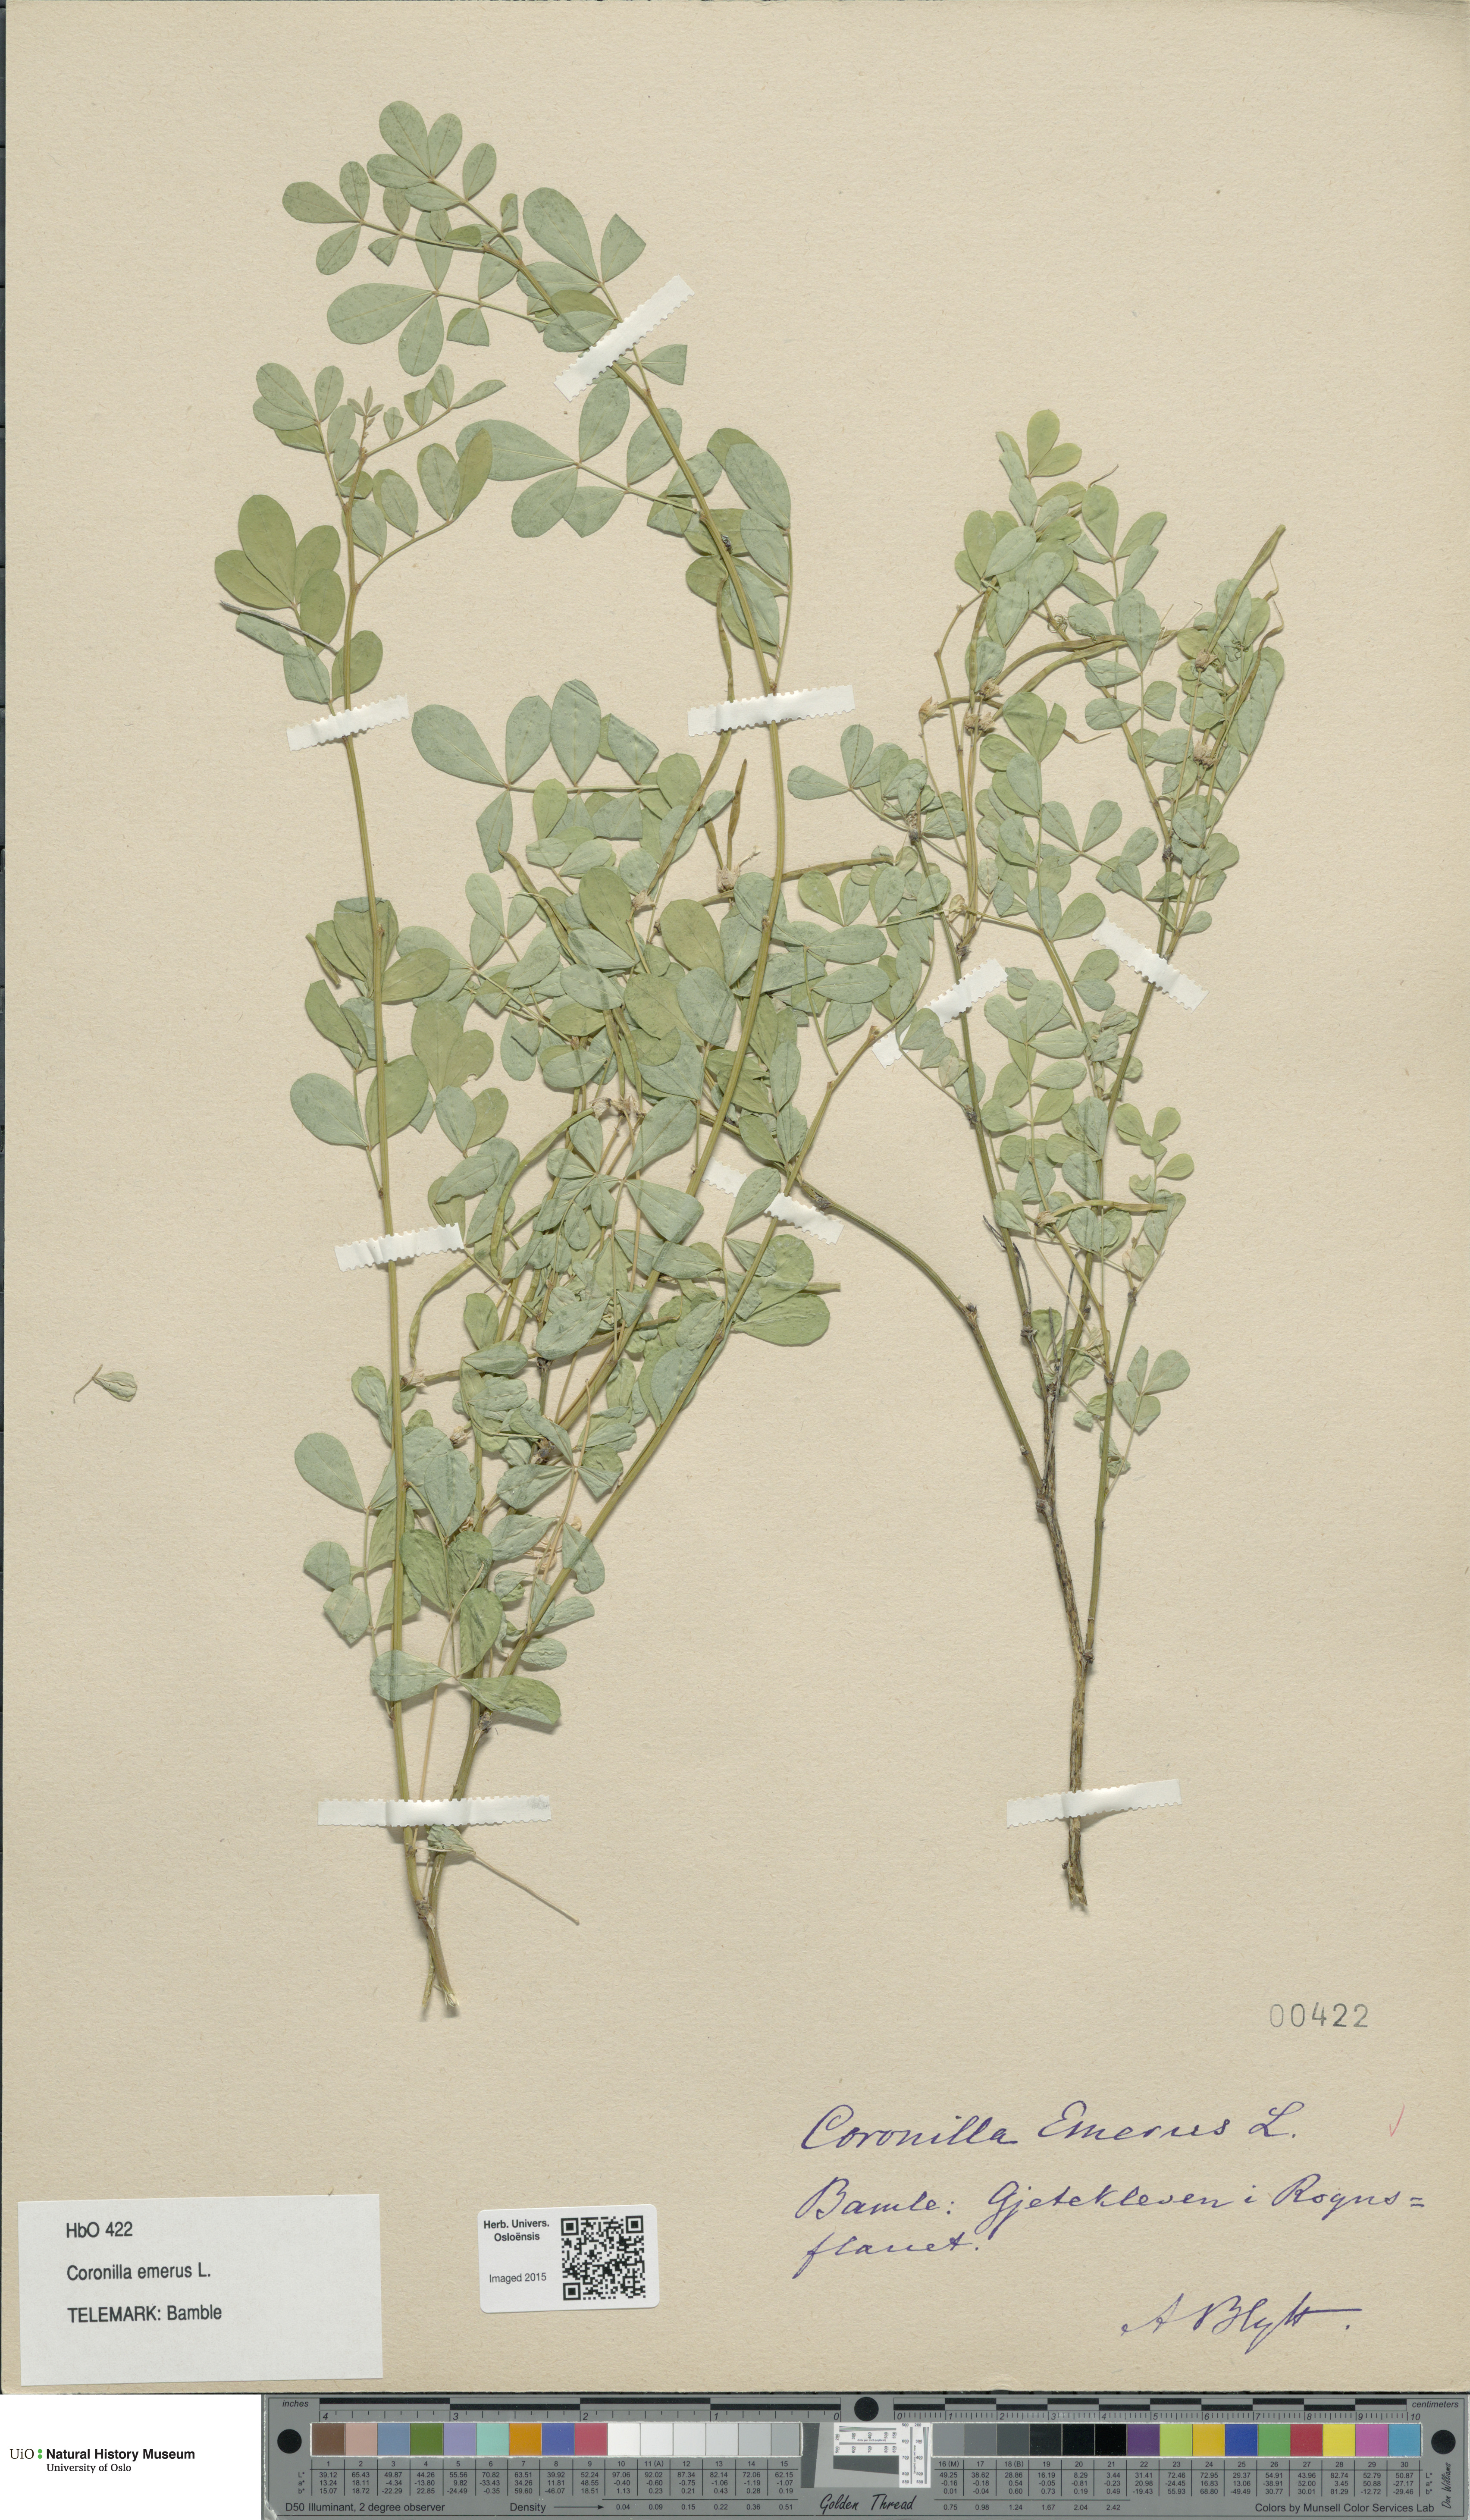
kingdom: Plantae
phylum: Tracheophyta
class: Magnoliopsida
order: Fabales
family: Fabaceae
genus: Hippocrepis
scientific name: Hippocrepis emerus
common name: Scorpion senna
